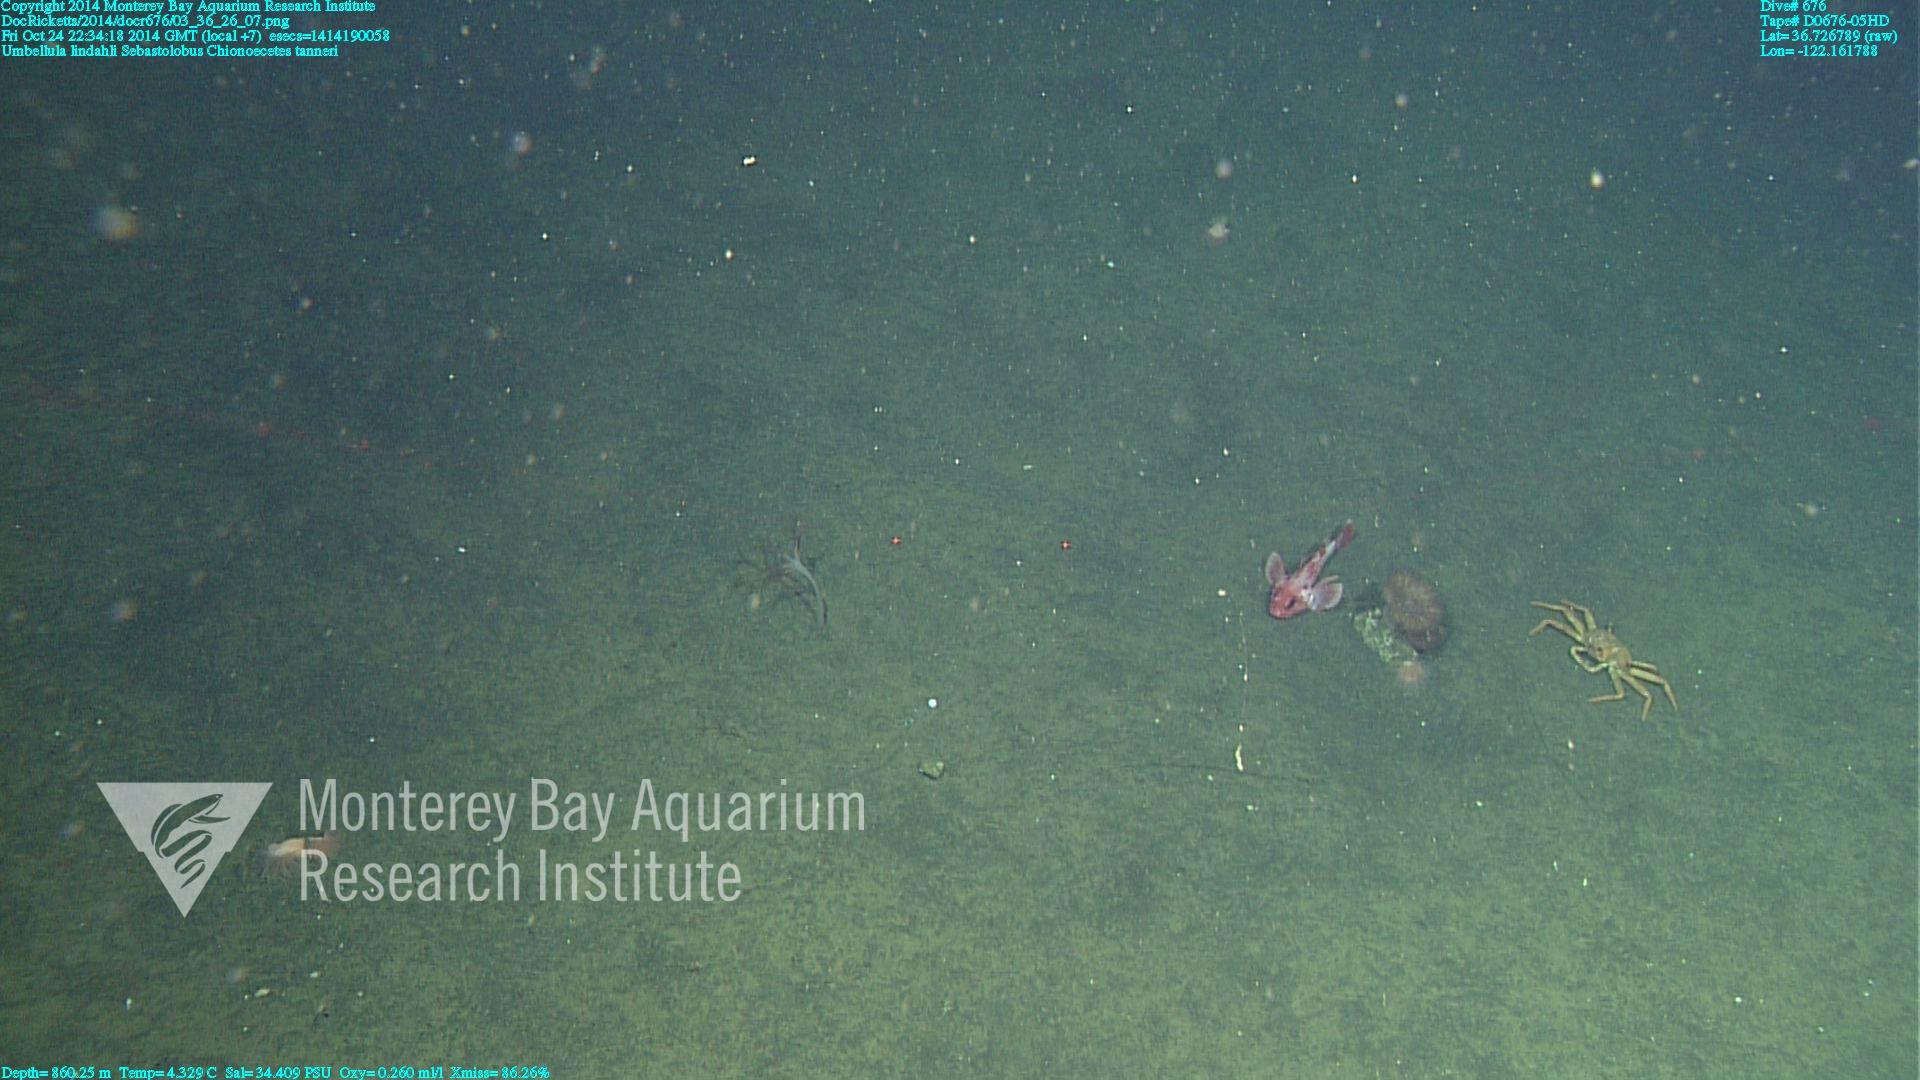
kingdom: Animalia
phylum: Cnidaria
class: Anthozoa
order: Scleralcyonacea
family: Umbellulidae
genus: Umbellula
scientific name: Umbellula lindahli
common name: Lindahl's droopy sea pen
